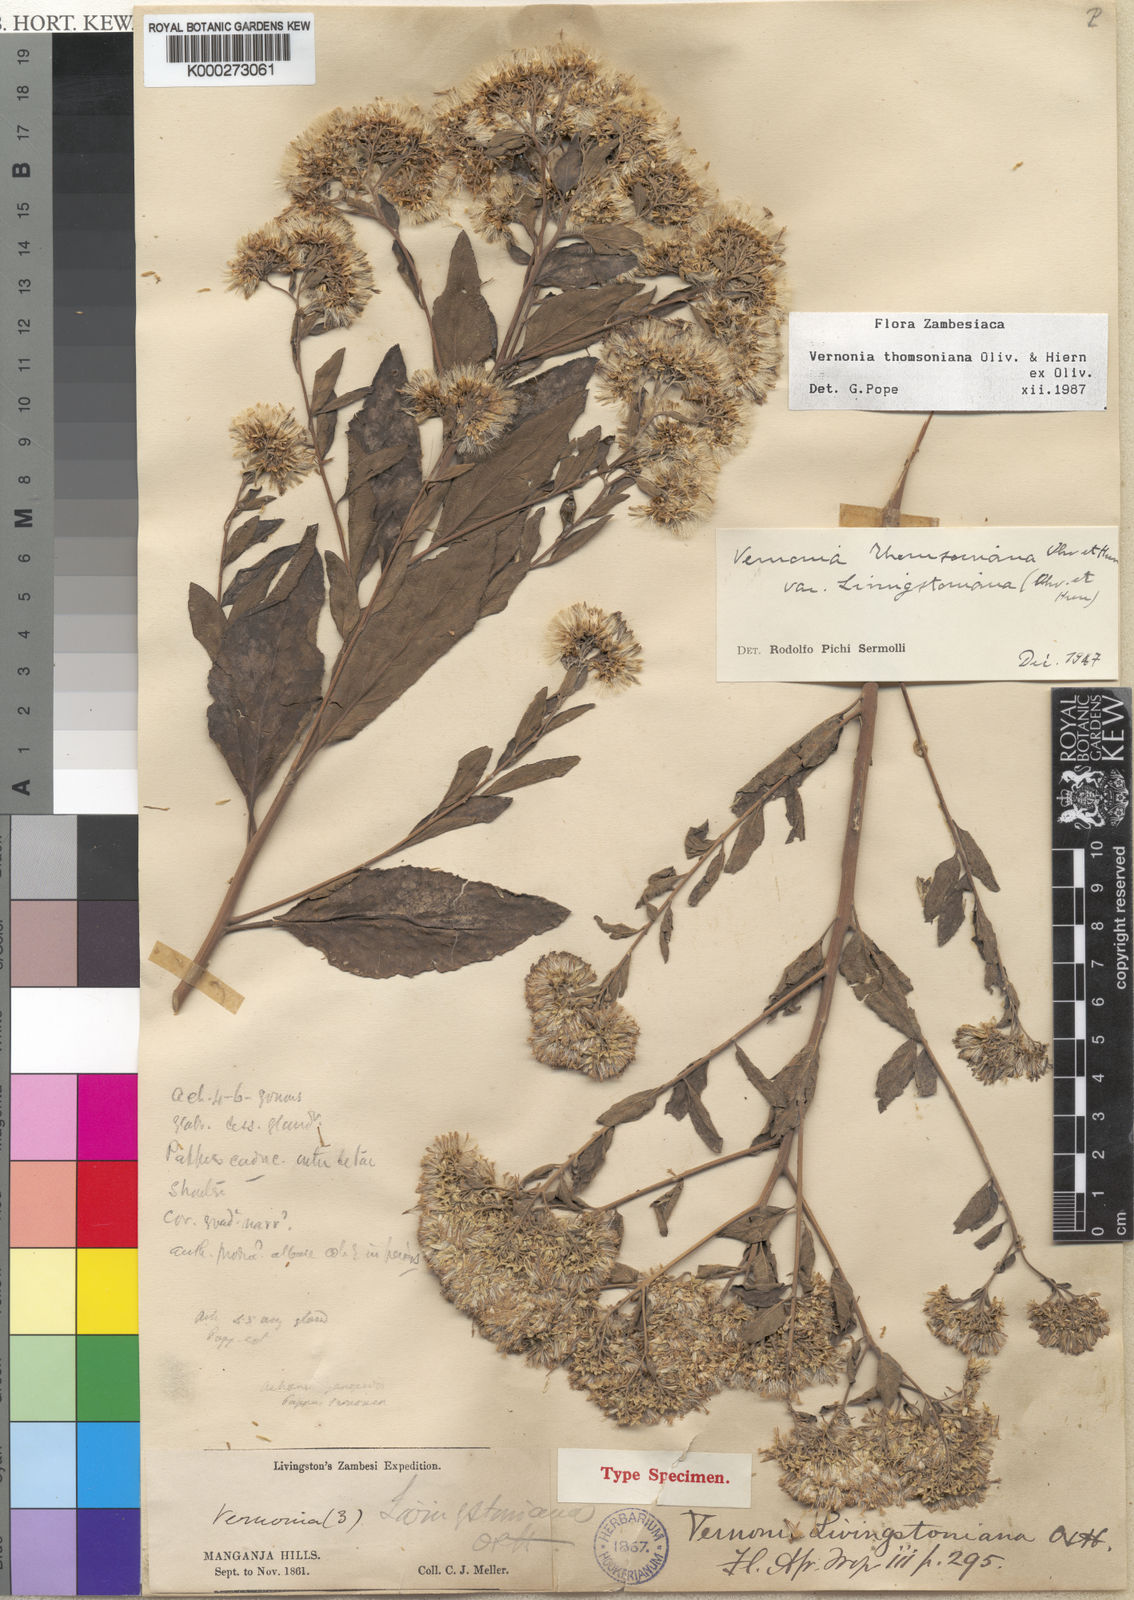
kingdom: Plantae
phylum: Tracheophyta
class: Magnoliopsida
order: Asterales
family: Asteraceae
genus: Gymnanthemum
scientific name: Gymnanthemum thomsonianum
